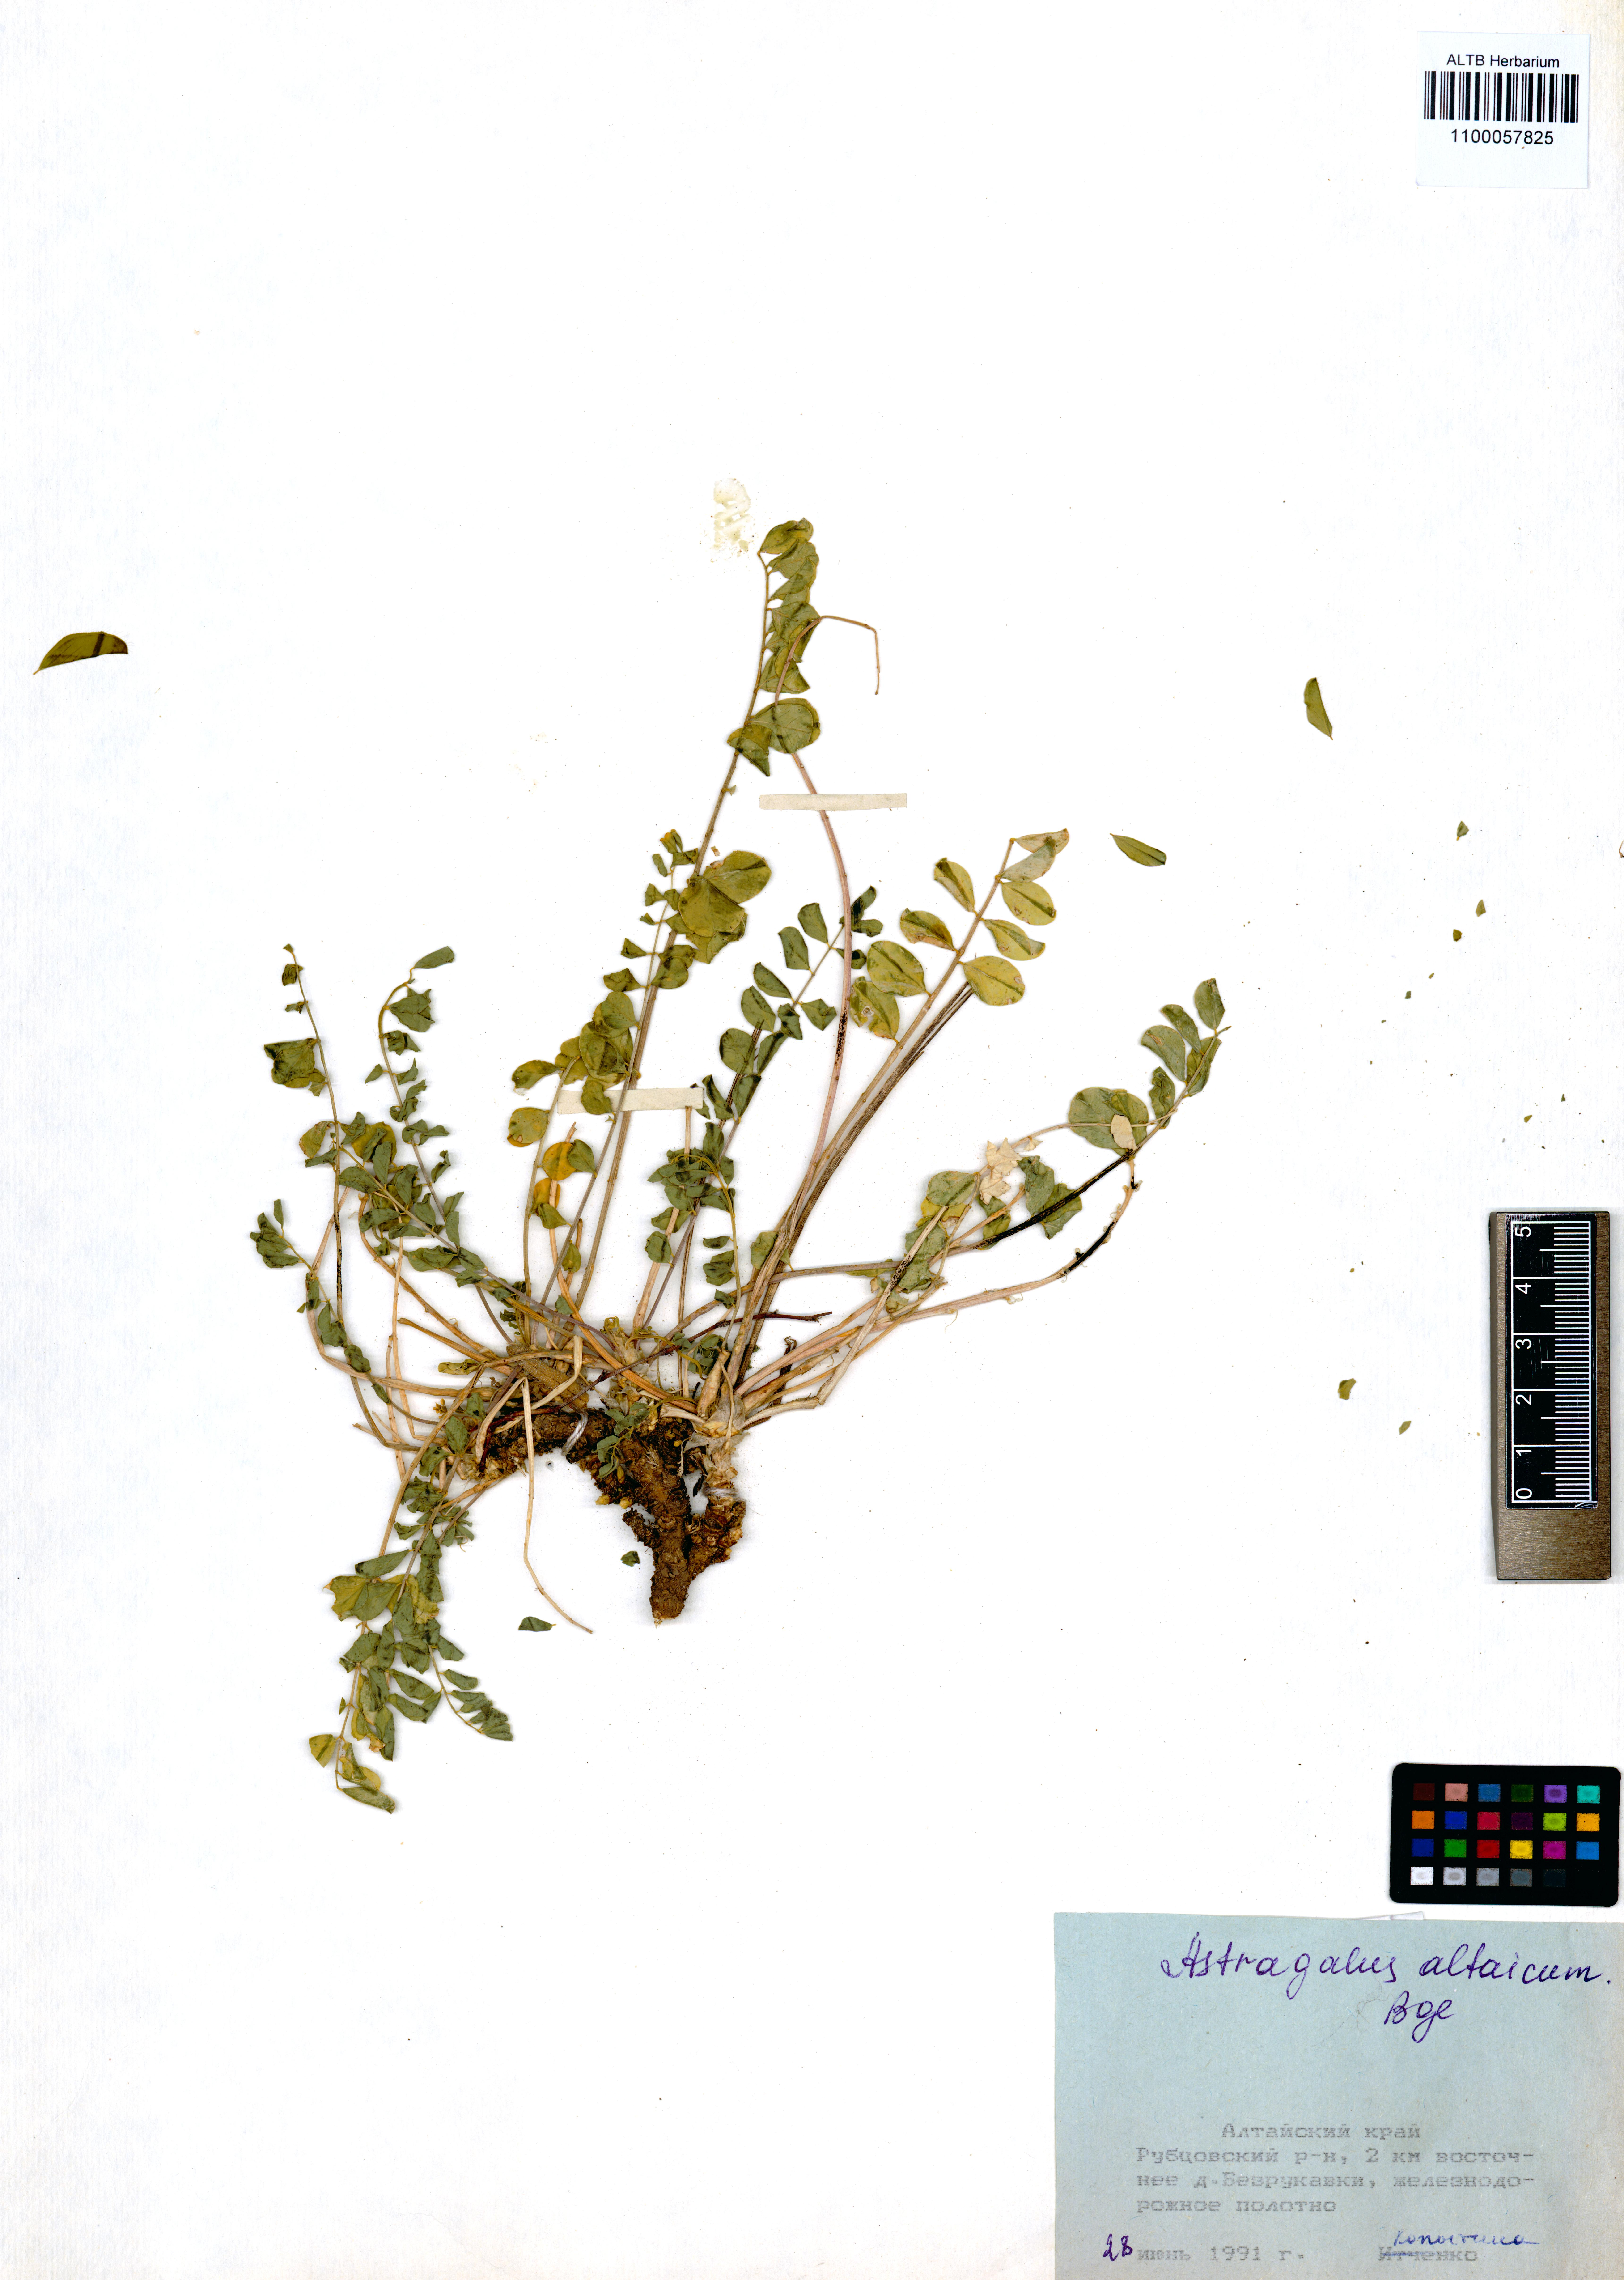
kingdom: Plantae
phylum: Tracheophyta
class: Magnoliopsida
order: Fabales
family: Fabaceae
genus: Astragalus
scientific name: Astragalus altaicola
